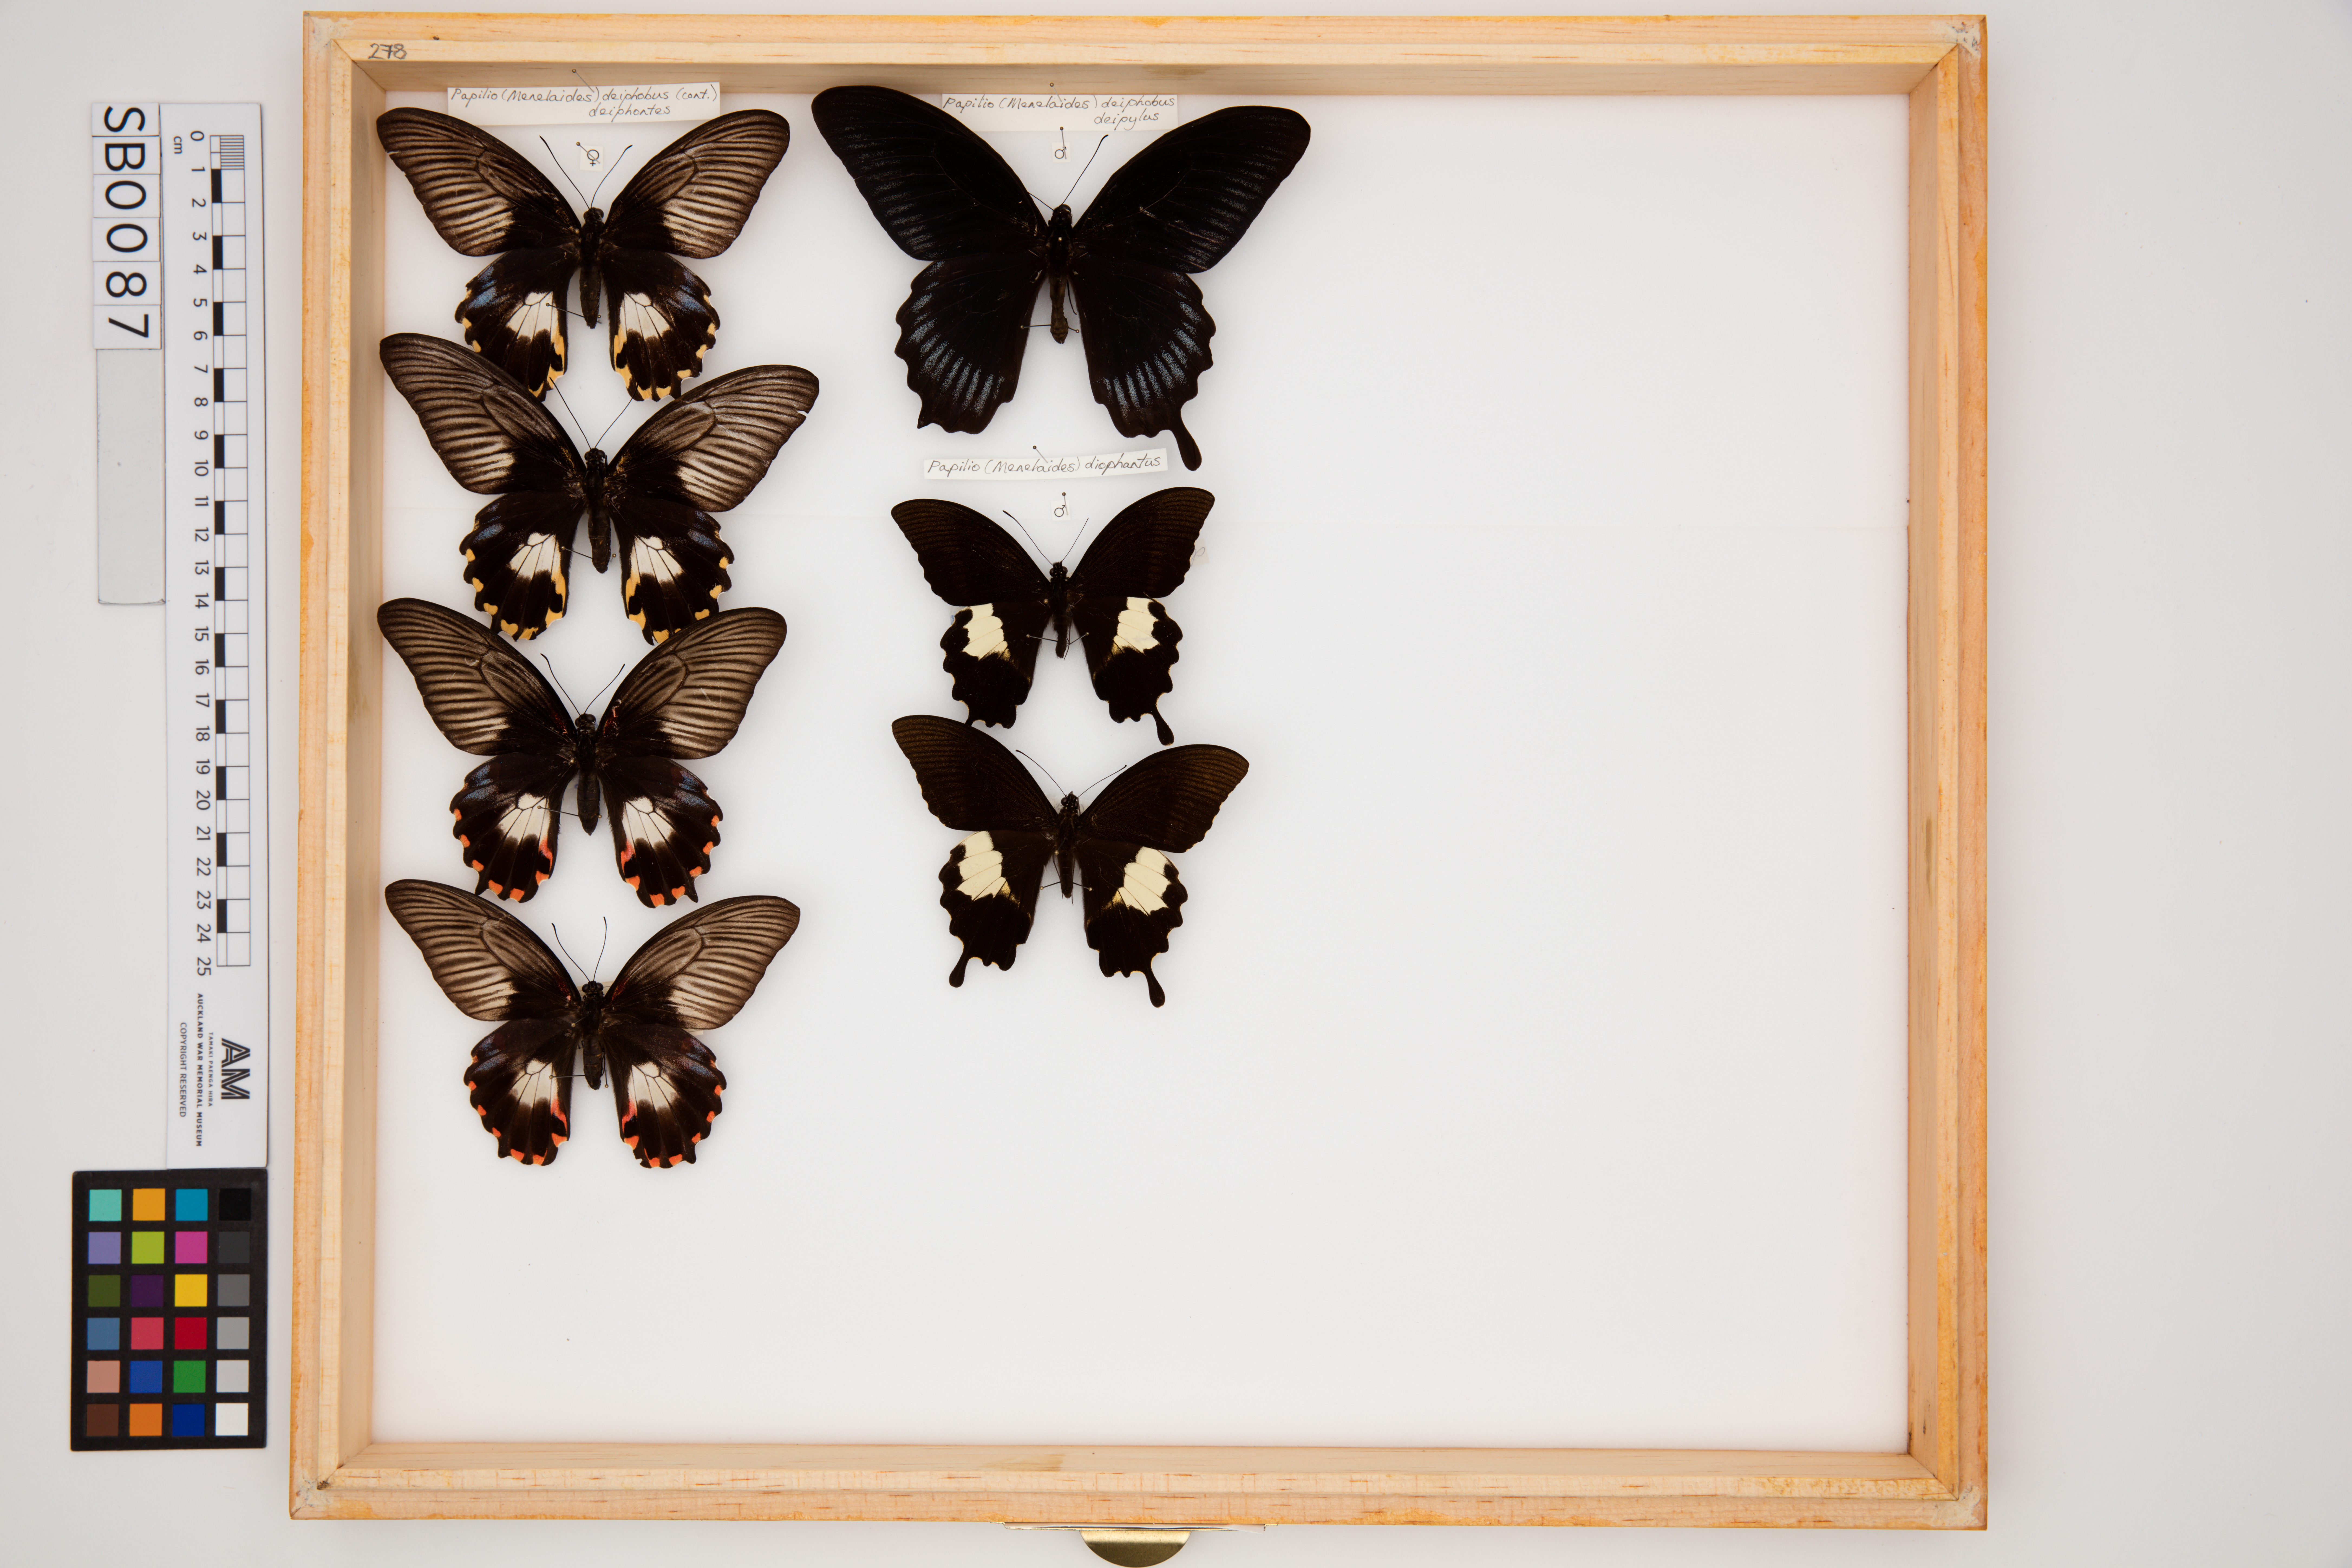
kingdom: Animalia
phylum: Arthropoda
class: Insecta
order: Lepidoptera
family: Papilionidae
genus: Papilio
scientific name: Papilio deiphobus
